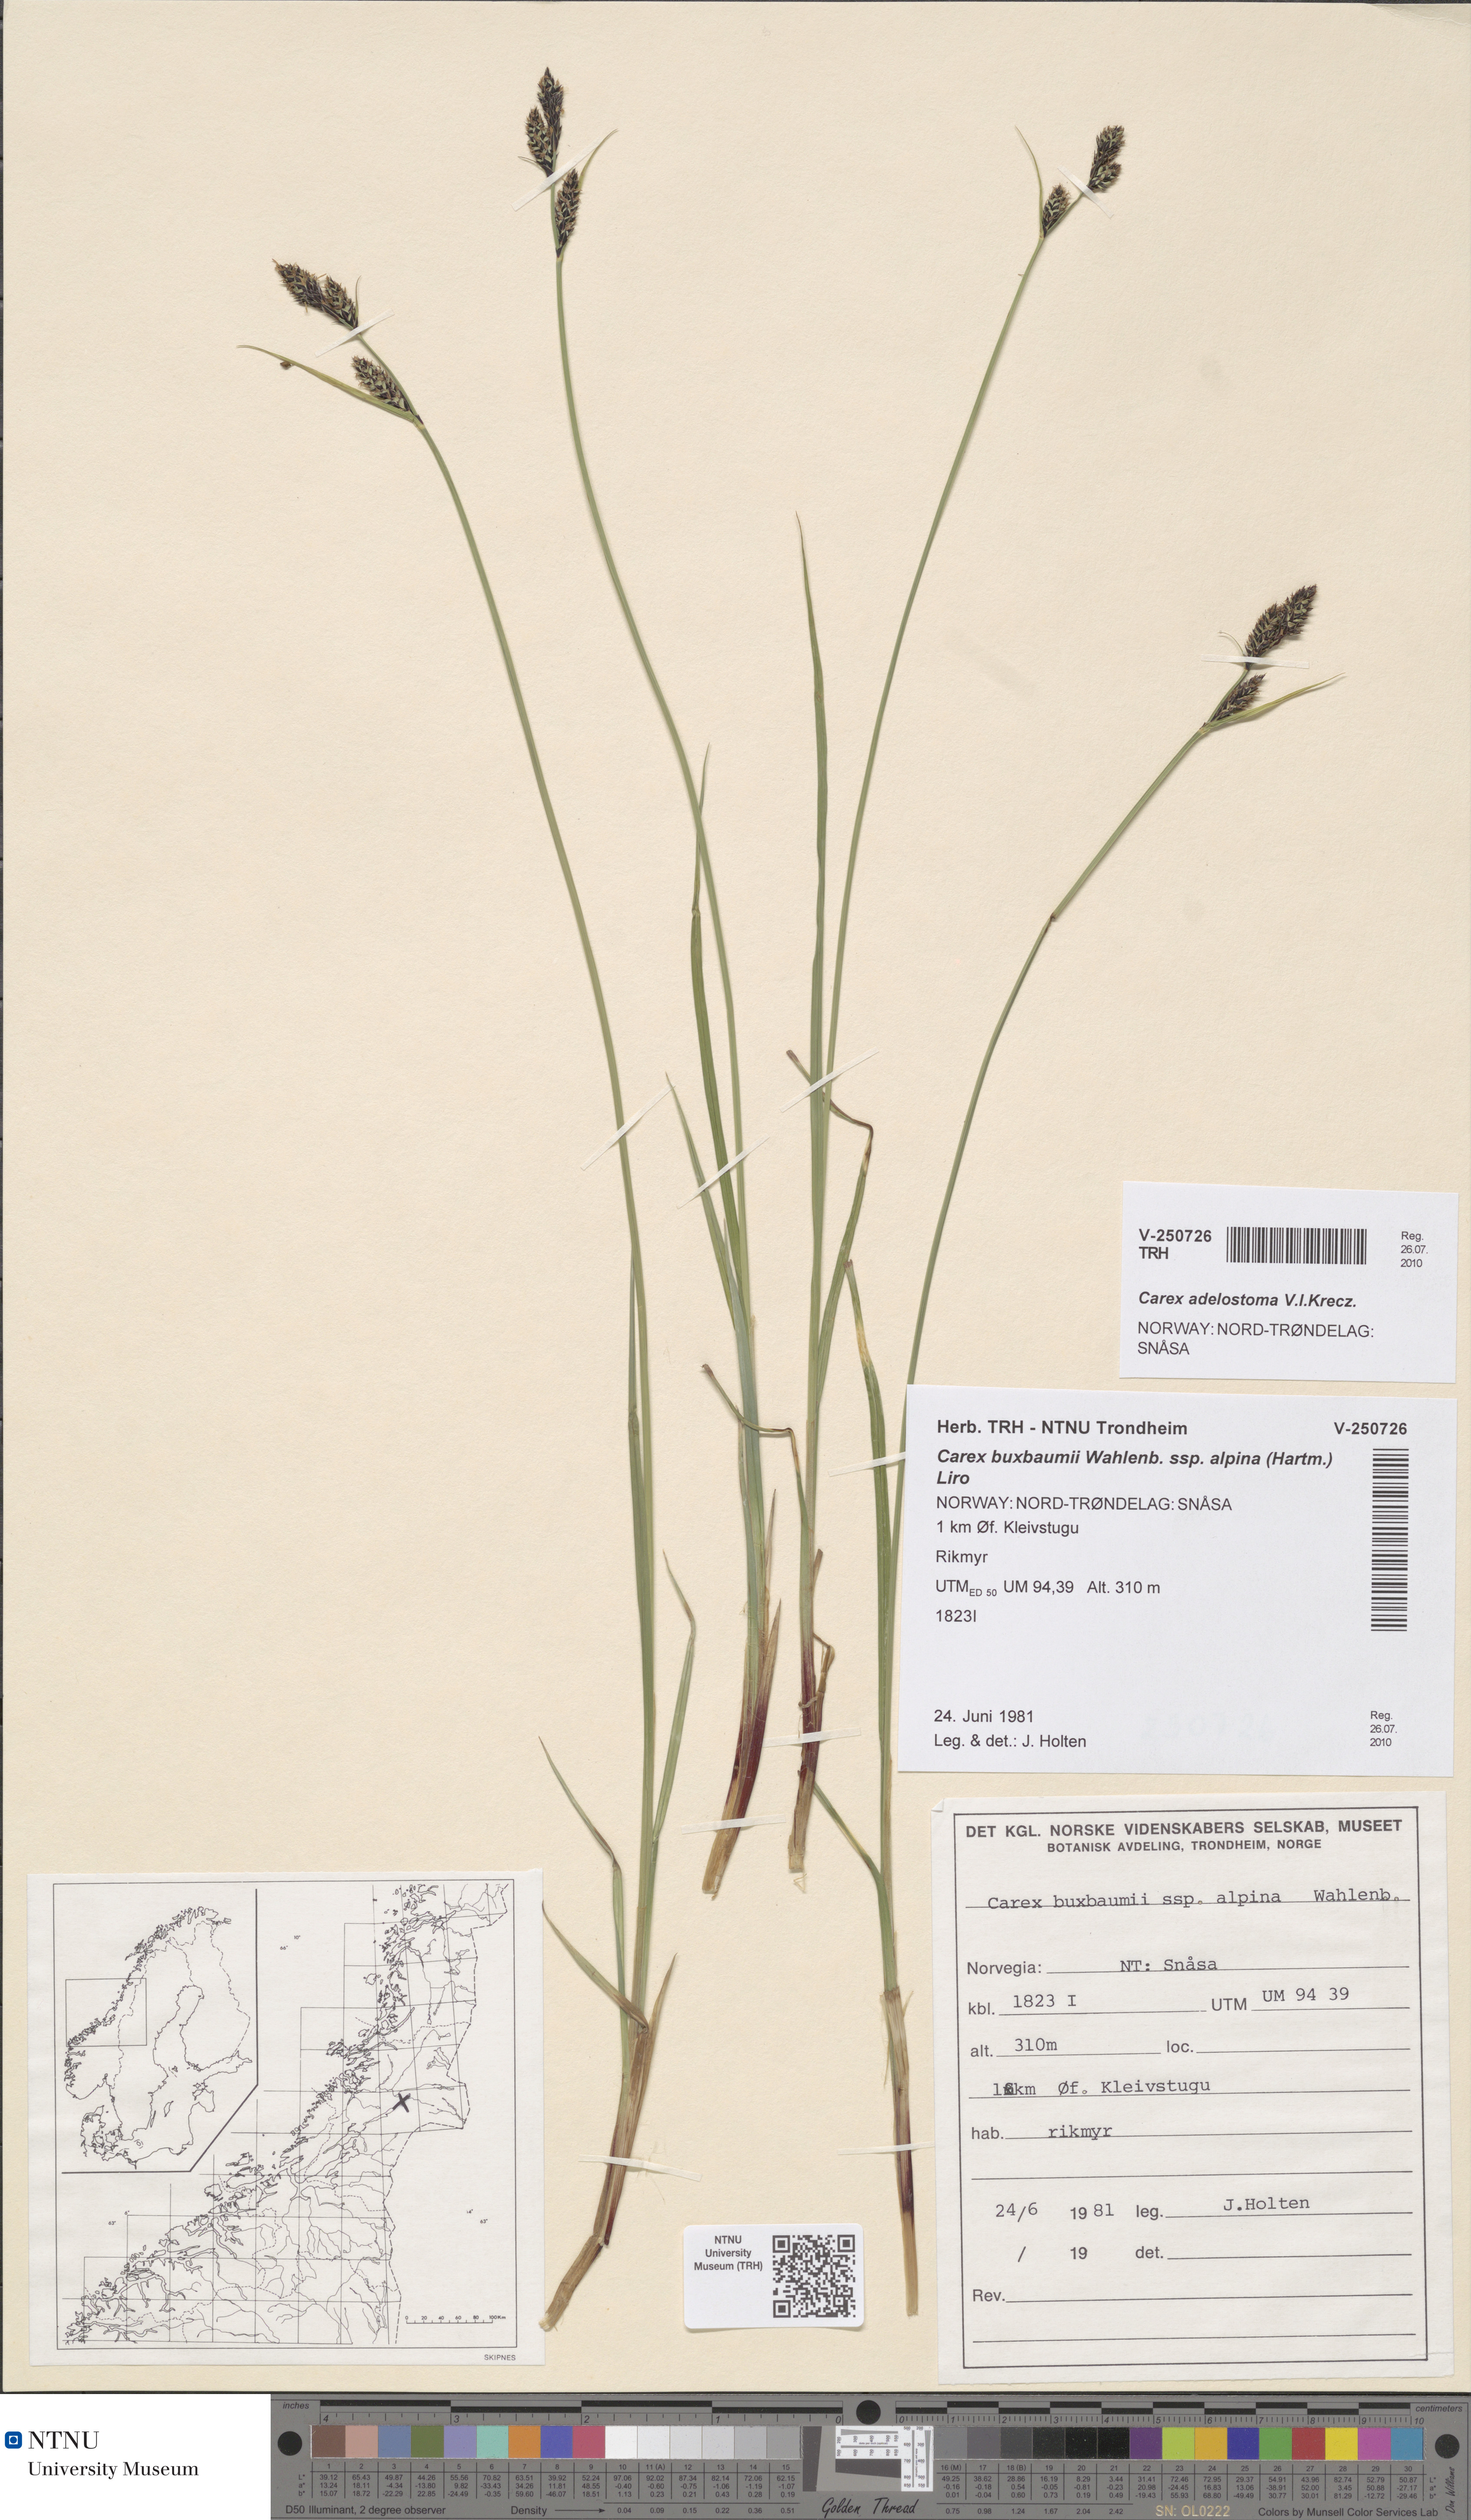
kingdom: Plantae
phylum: Tracheophyta
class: Liliopsida
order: Poales
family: Cyperaceae
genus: Carex
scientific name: Carex adelostoma
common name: Circumpolar sedge
